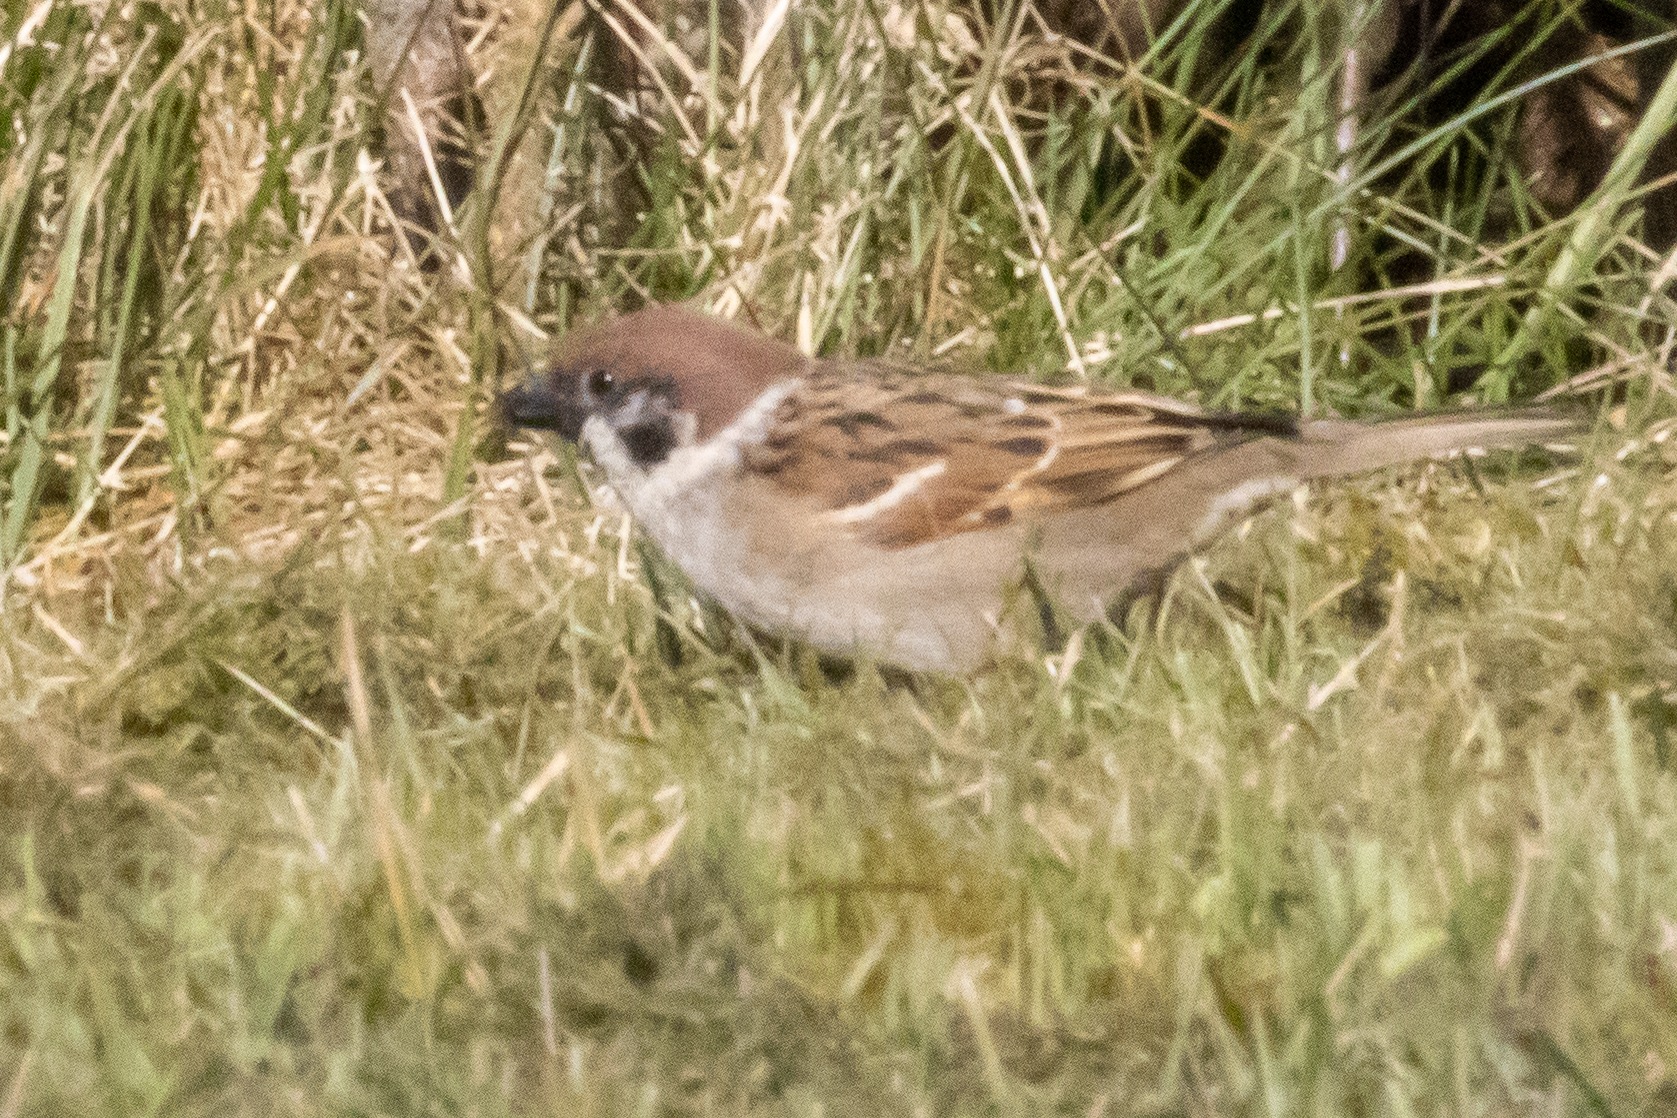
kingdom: Animalia
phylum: Chordata
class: Aves
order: Passeriformes
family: Passeridae
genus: Passer
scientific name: Passer montanus
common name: Skovspurv
